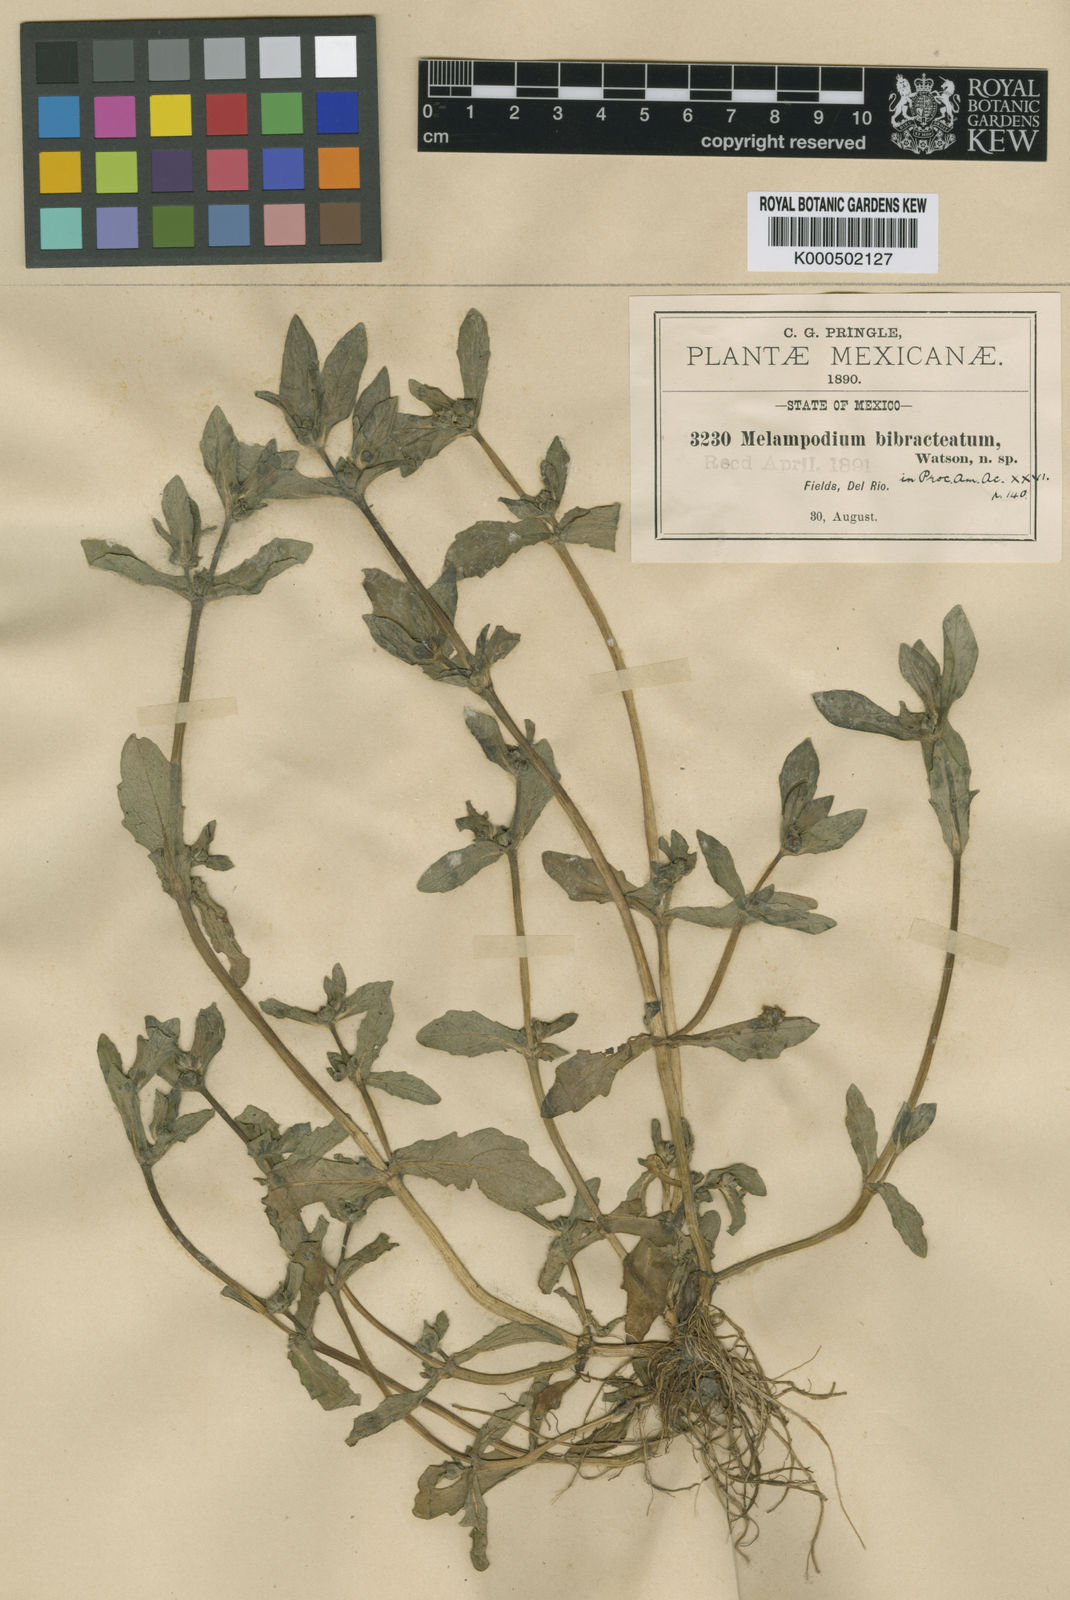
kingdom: Plantae
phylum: Tracheophyta
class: Magnoliopsida
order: Asterales
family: Asteraceae
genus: Melampodium
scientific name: Melampodium bibracteatum
